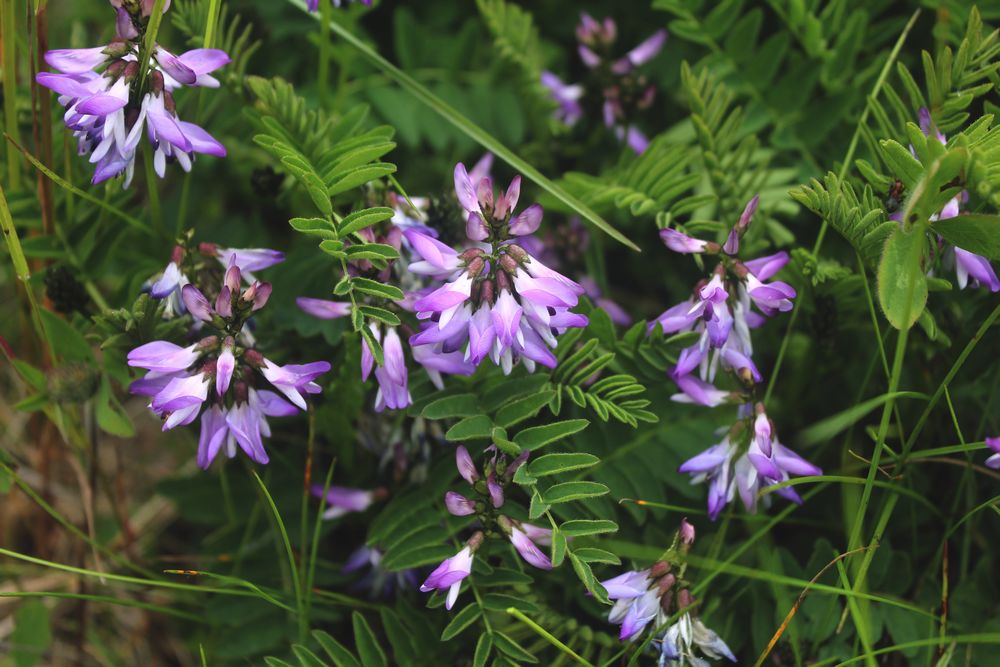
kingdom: Plantae
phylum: Tracheophyta
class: Magnoliopsida
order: Fabales
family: Fabaceae
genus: Astragalus
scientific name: Astragalus norvegicus
